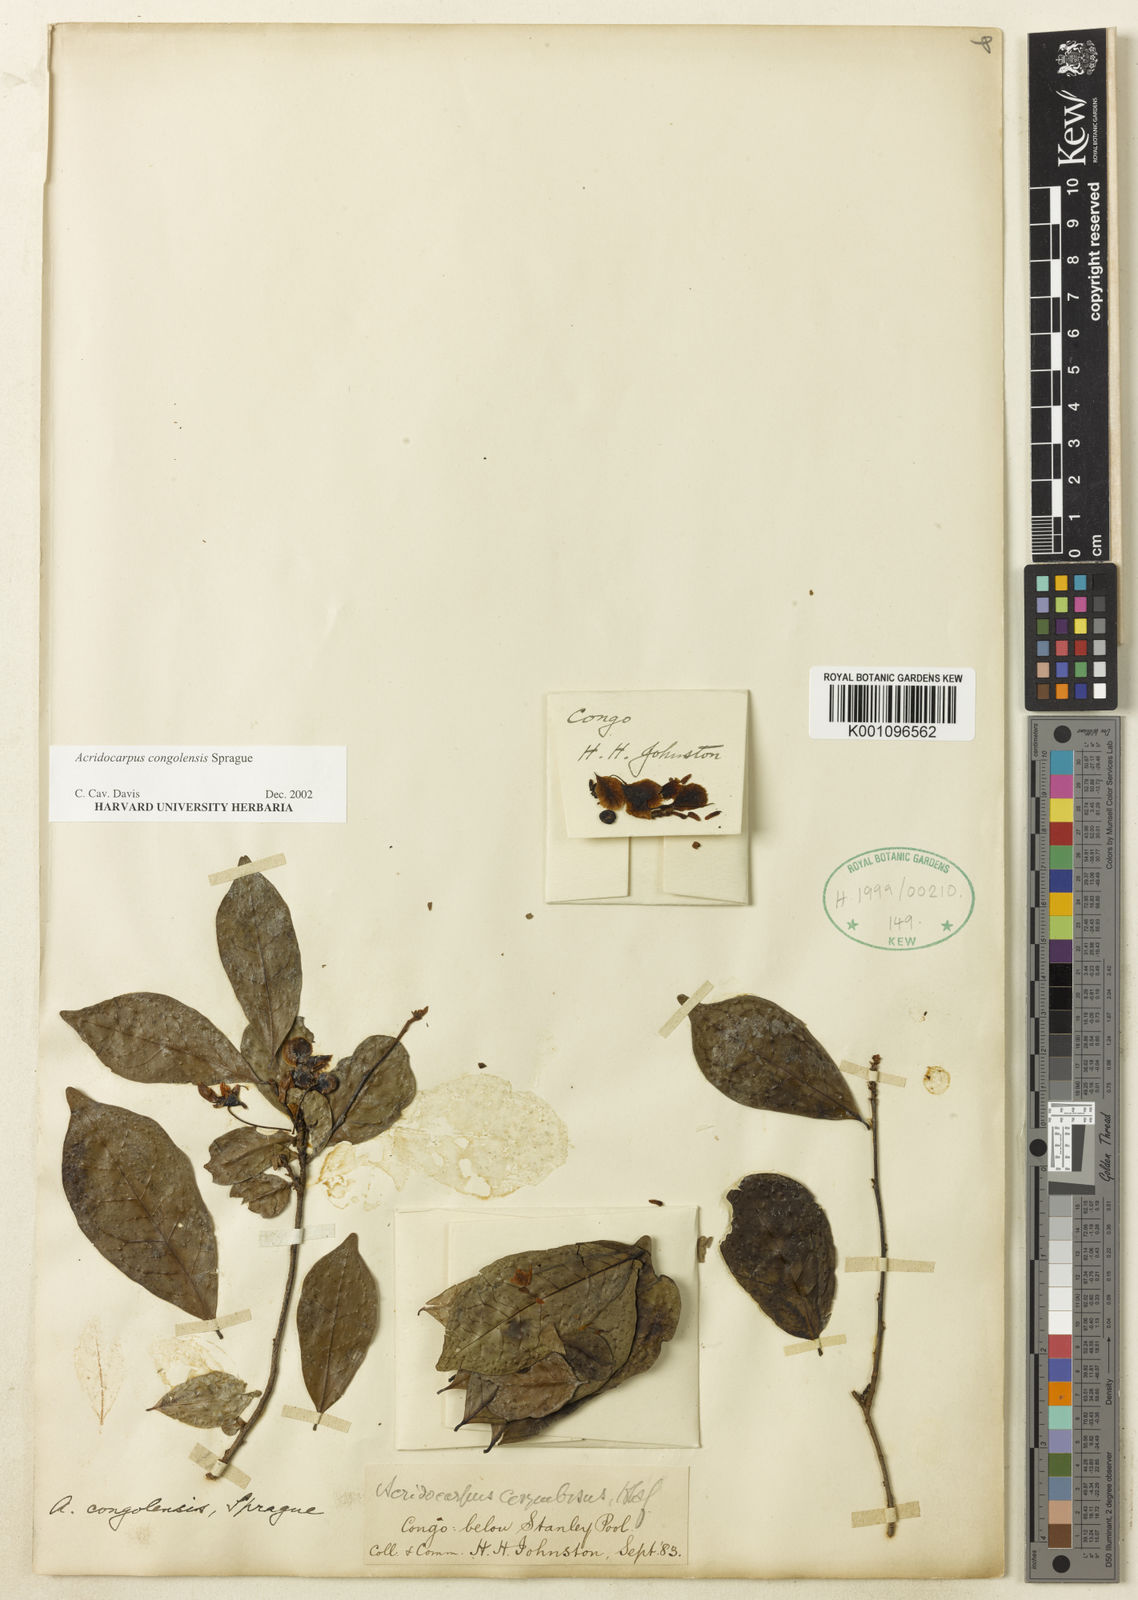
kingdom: Plantae
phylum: Tracheophyta
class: Magnoliopsida
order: Malpighiales
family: Malpighiaceae
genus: Acridocarpus
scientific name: Acridocarpus congolensis
